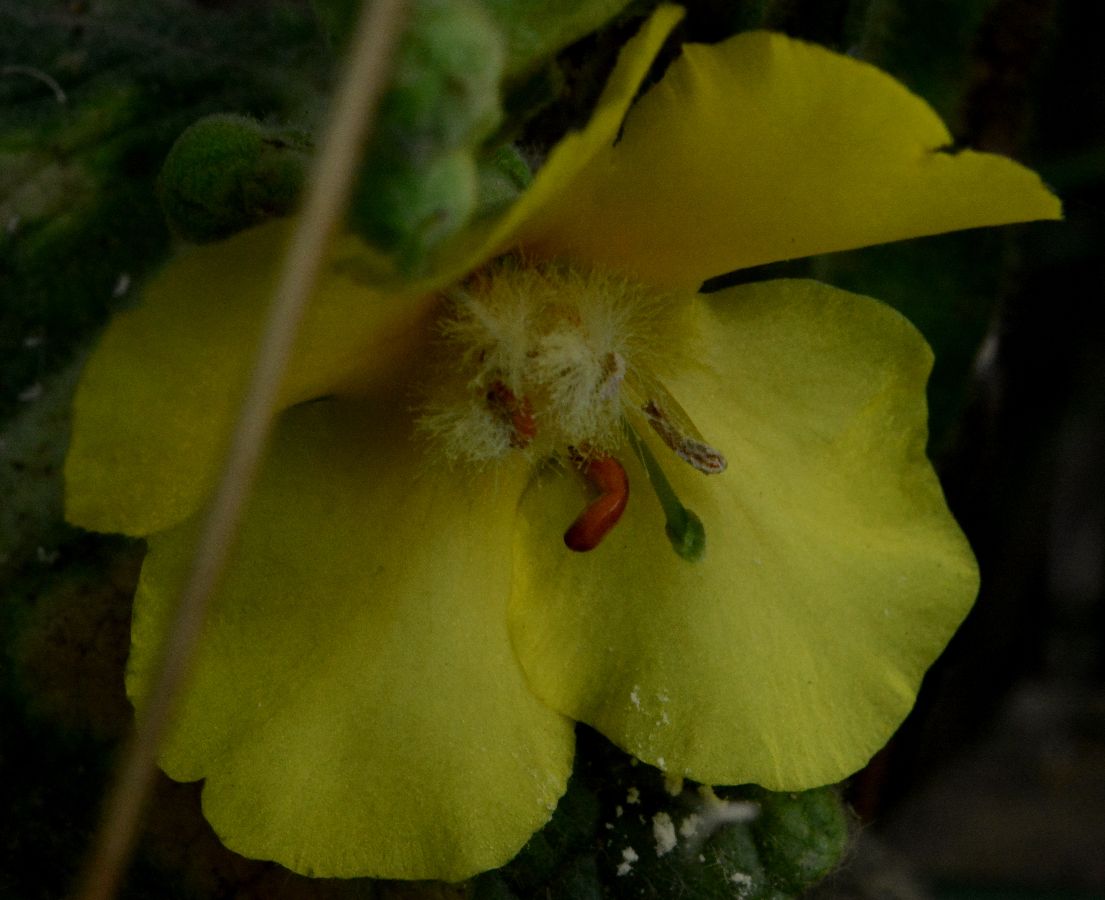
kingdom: Plantae
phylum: Tracheophyta
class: Magnoliopsida
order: Lamiales
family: Scrophulariaceae
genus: Verbascum
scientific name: Verbascum densiflorum
